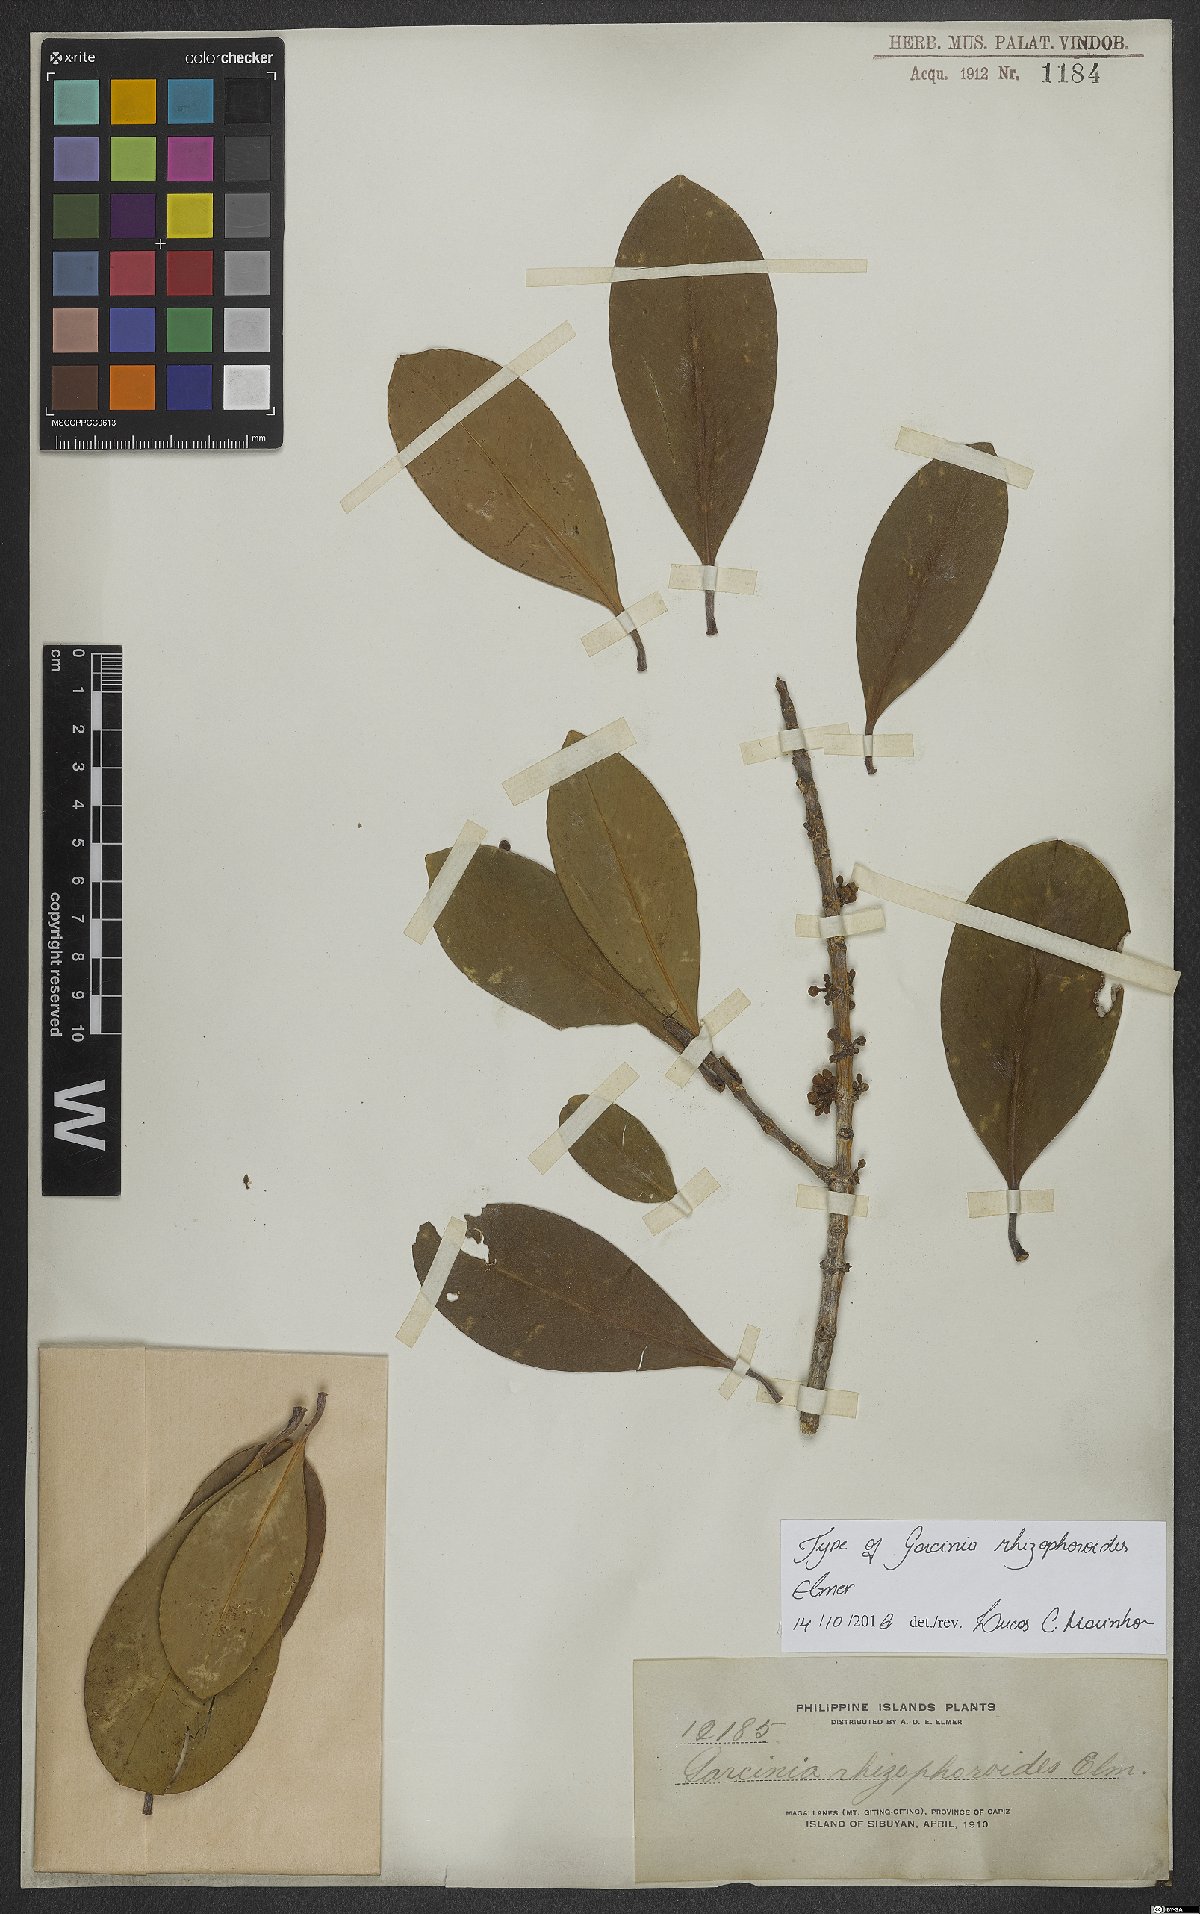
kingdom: Plantae
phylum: Tracheophyta
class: Magnoliopsida
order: Malpighiales
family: Clusiaceae
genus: Garcinia
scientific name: Garcinia rhizophoroides
